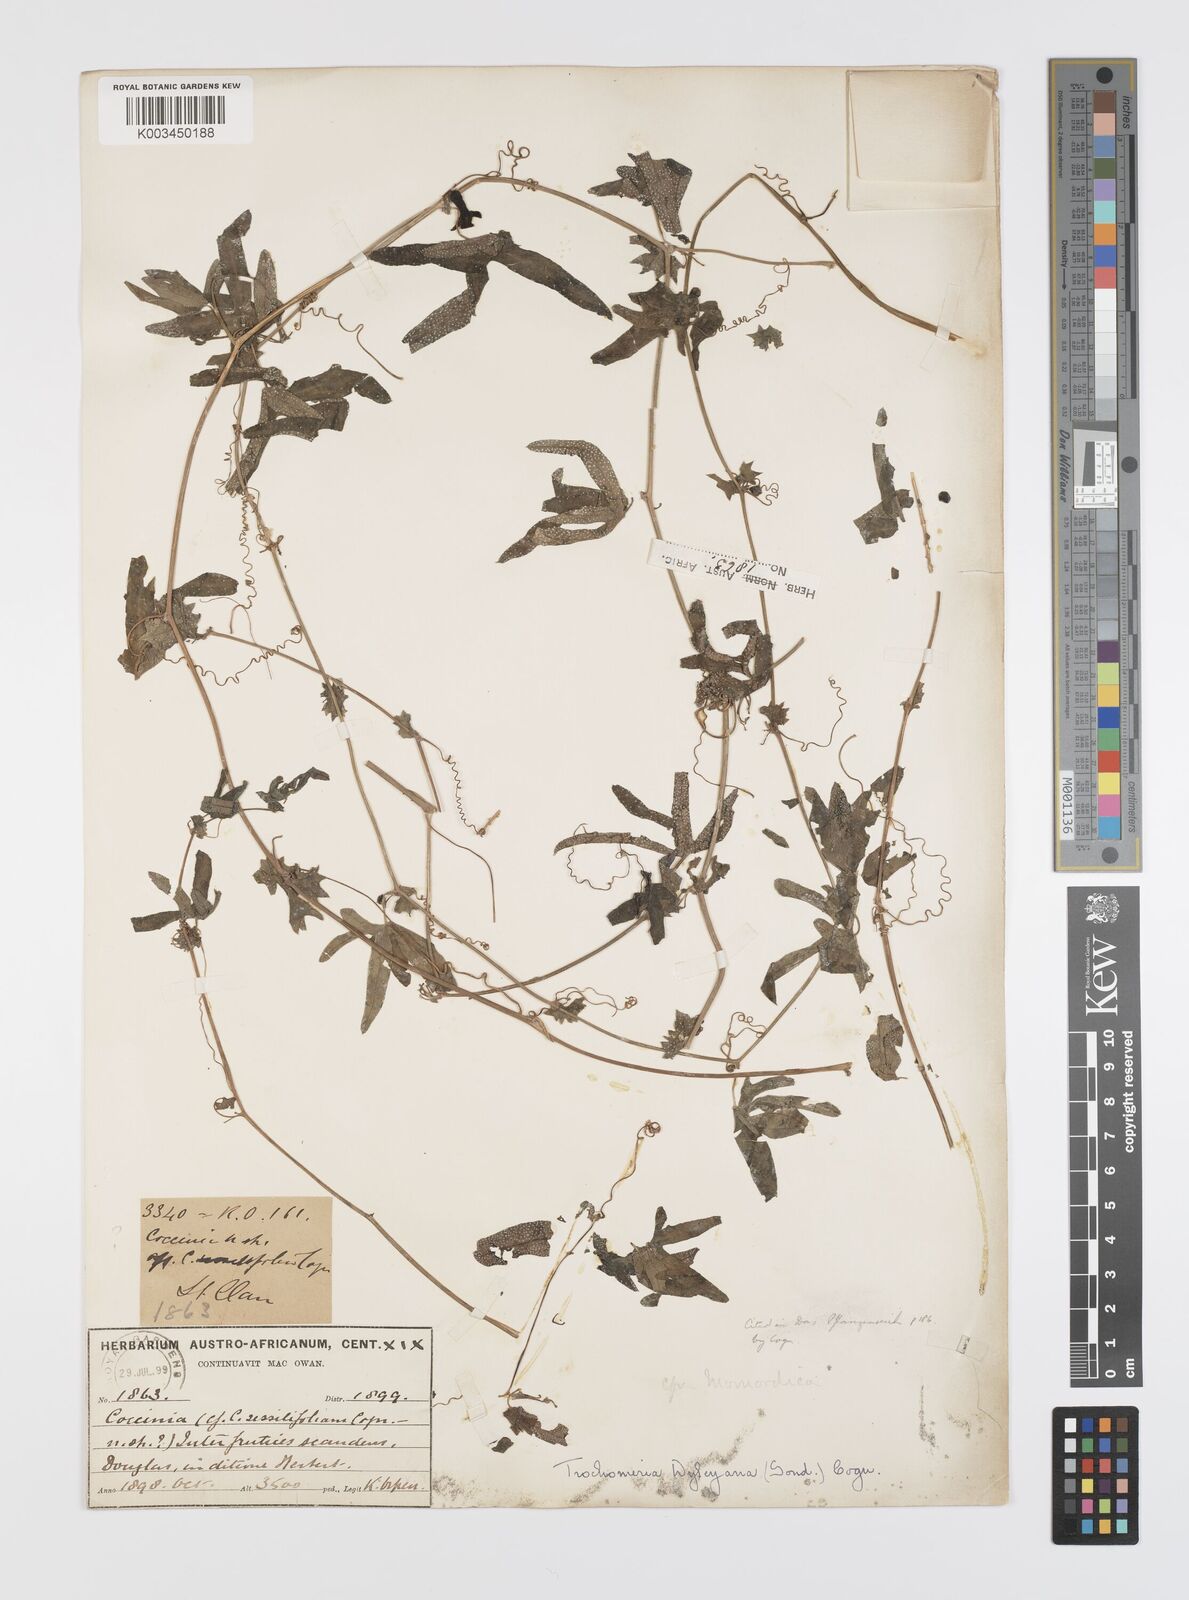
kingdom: Plantae
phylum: Tracheophyta
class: Magnoliopsida
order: Cucurbitales
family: Cucurbitaceae
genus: Trochomeria
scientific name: Trochomeria debilis
